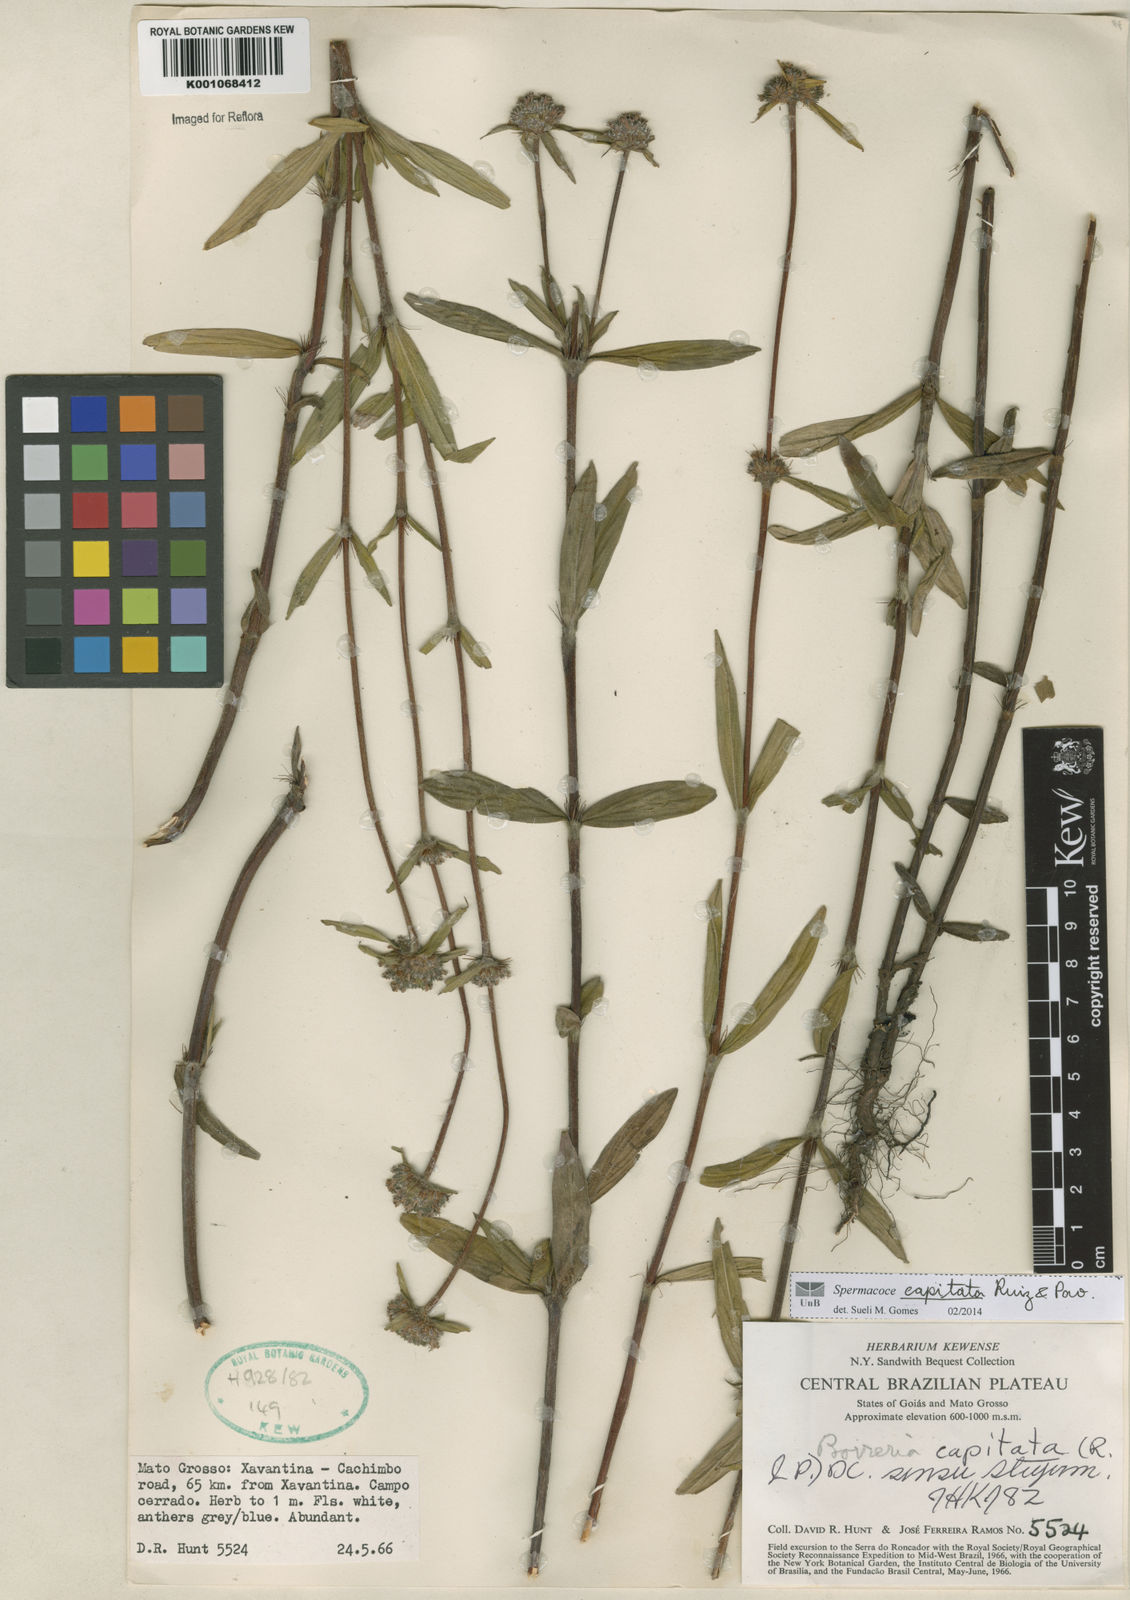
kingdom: Plantae
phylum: Tracheophyta
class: Magnoliopsida
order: Gentianales
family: Rubiaceae
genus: Spermacoce
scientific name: Spermacoce capitata
